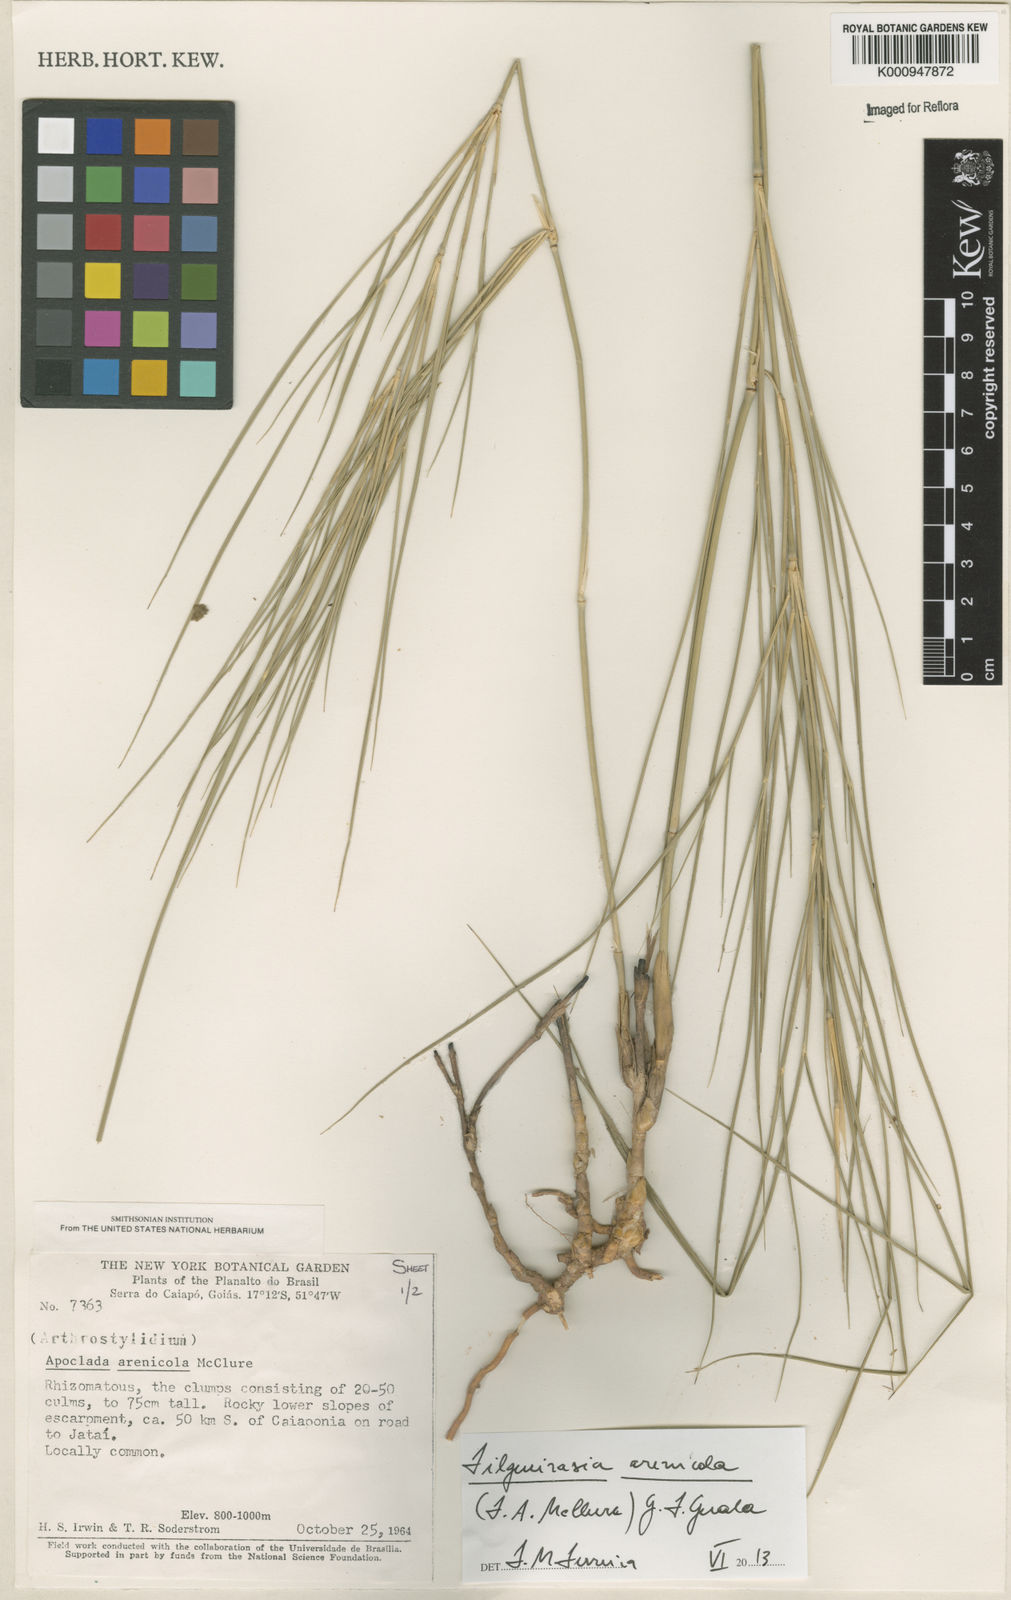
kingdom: Plantae
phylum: Tracheophyta
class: Liliopsida
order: Poales
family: Poaceae
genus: Filgueirasia
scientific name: Filgueirasia arenicola
